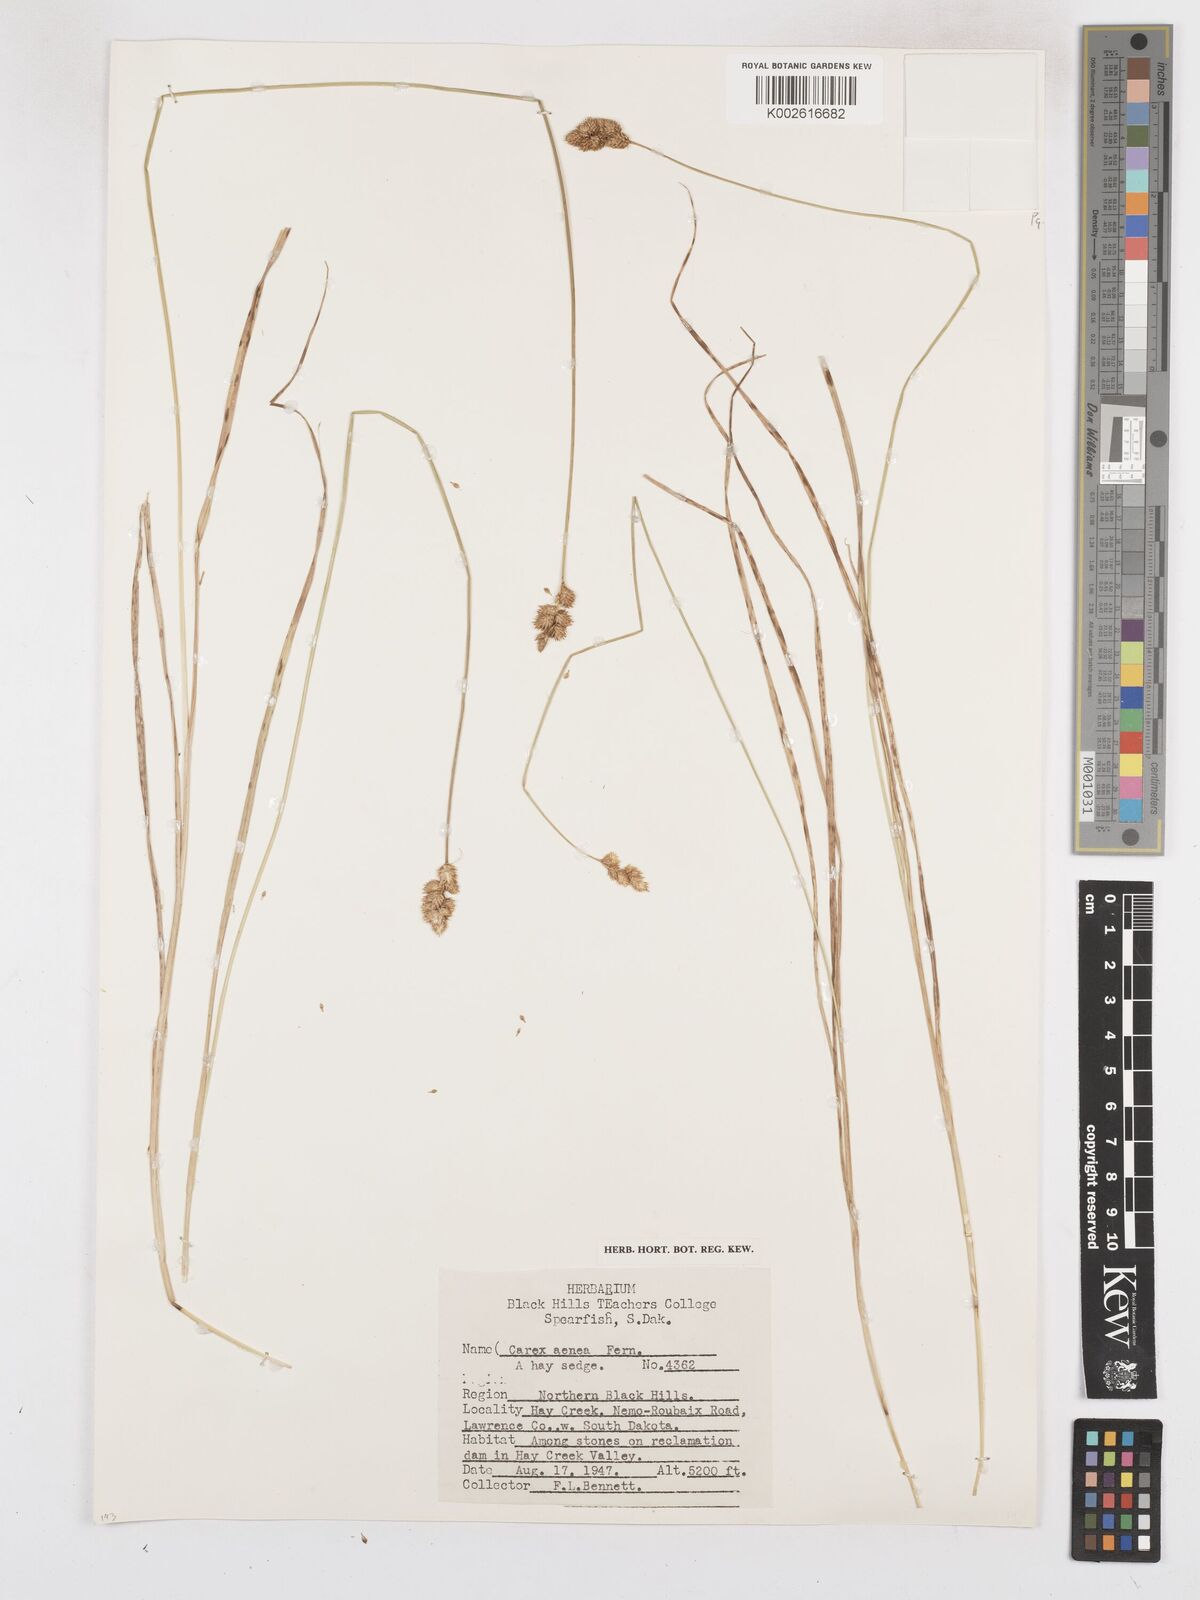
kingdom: Plantae
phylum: Tracheophyta
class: Liliopsida
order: Poales
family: Cyperaceae
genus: Carex
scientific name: Carex foenea
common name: Bronze sedge
